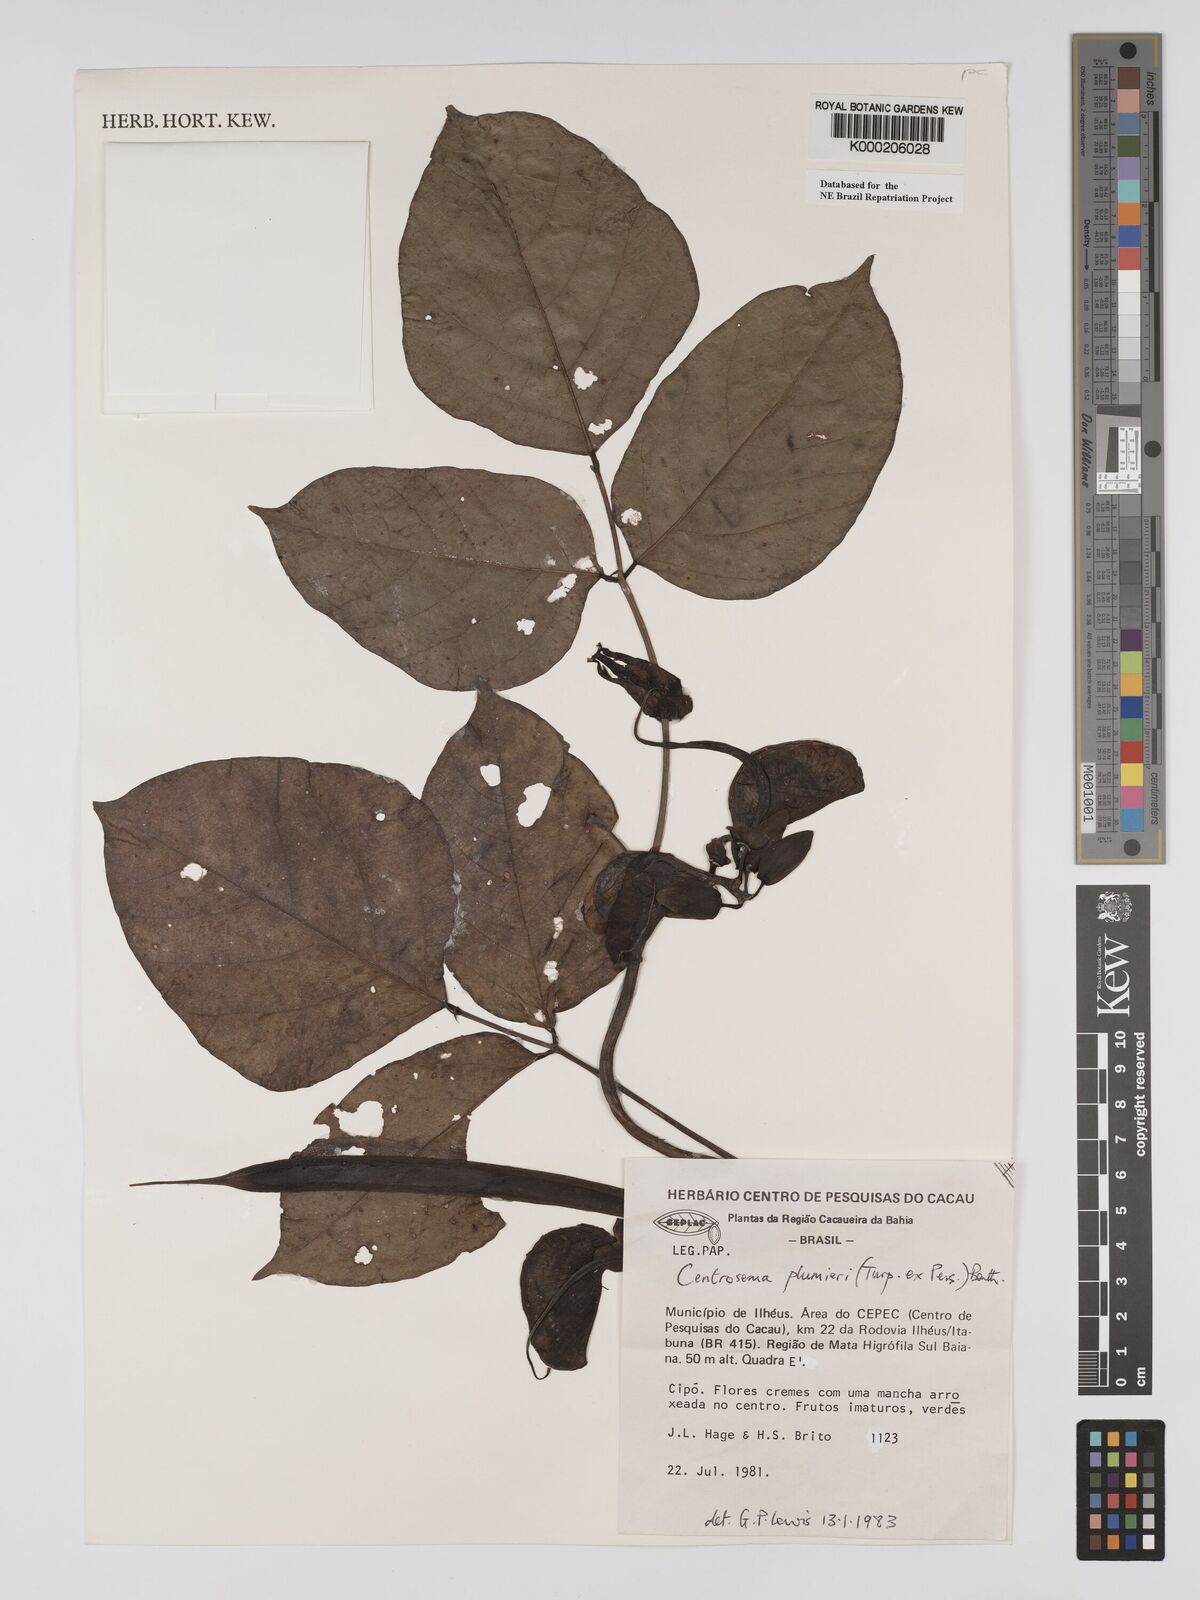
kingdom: Plantae
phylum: Tracheophyta
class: Magnoliopsida
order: Fabales
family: Fabaceae
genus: Centrosema
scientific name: Centrosema plumieri
